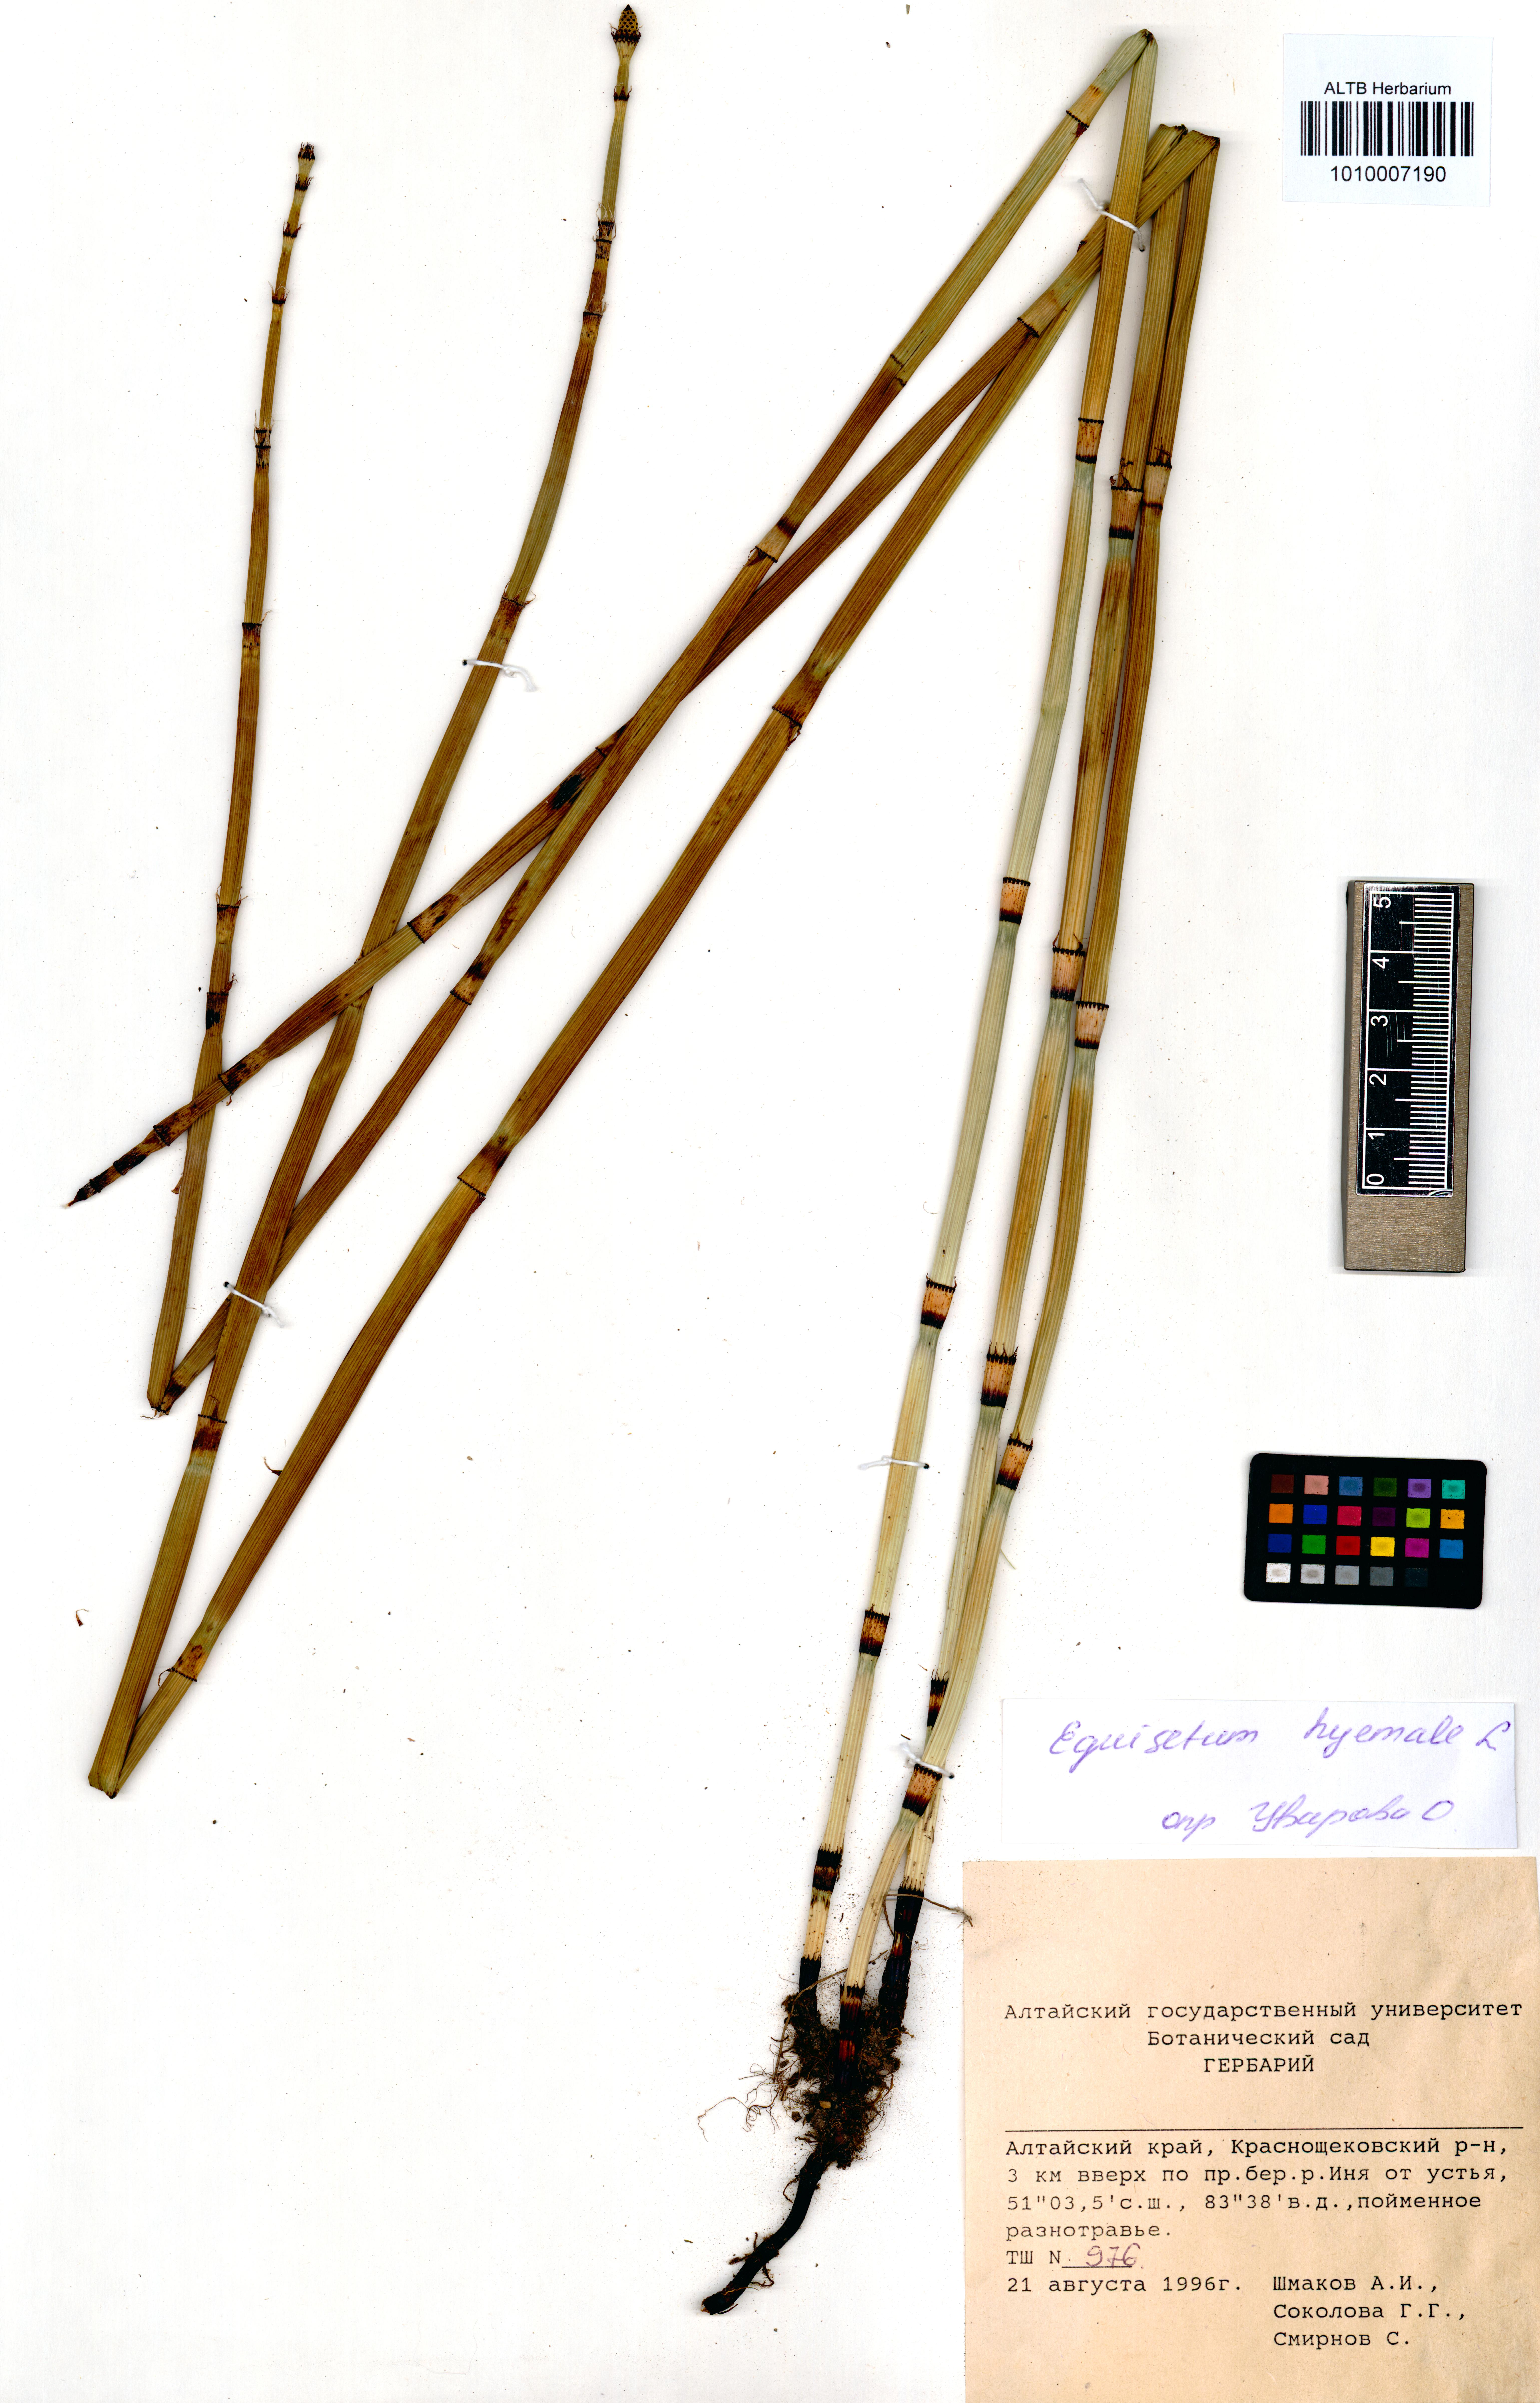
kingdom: Plantae
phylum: Tracheophyta
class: Polypodiopsida
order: Equisetales
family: Equisetaceae
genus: Equisetum
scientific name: Equisetum hyemale
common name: Rough horsetail
